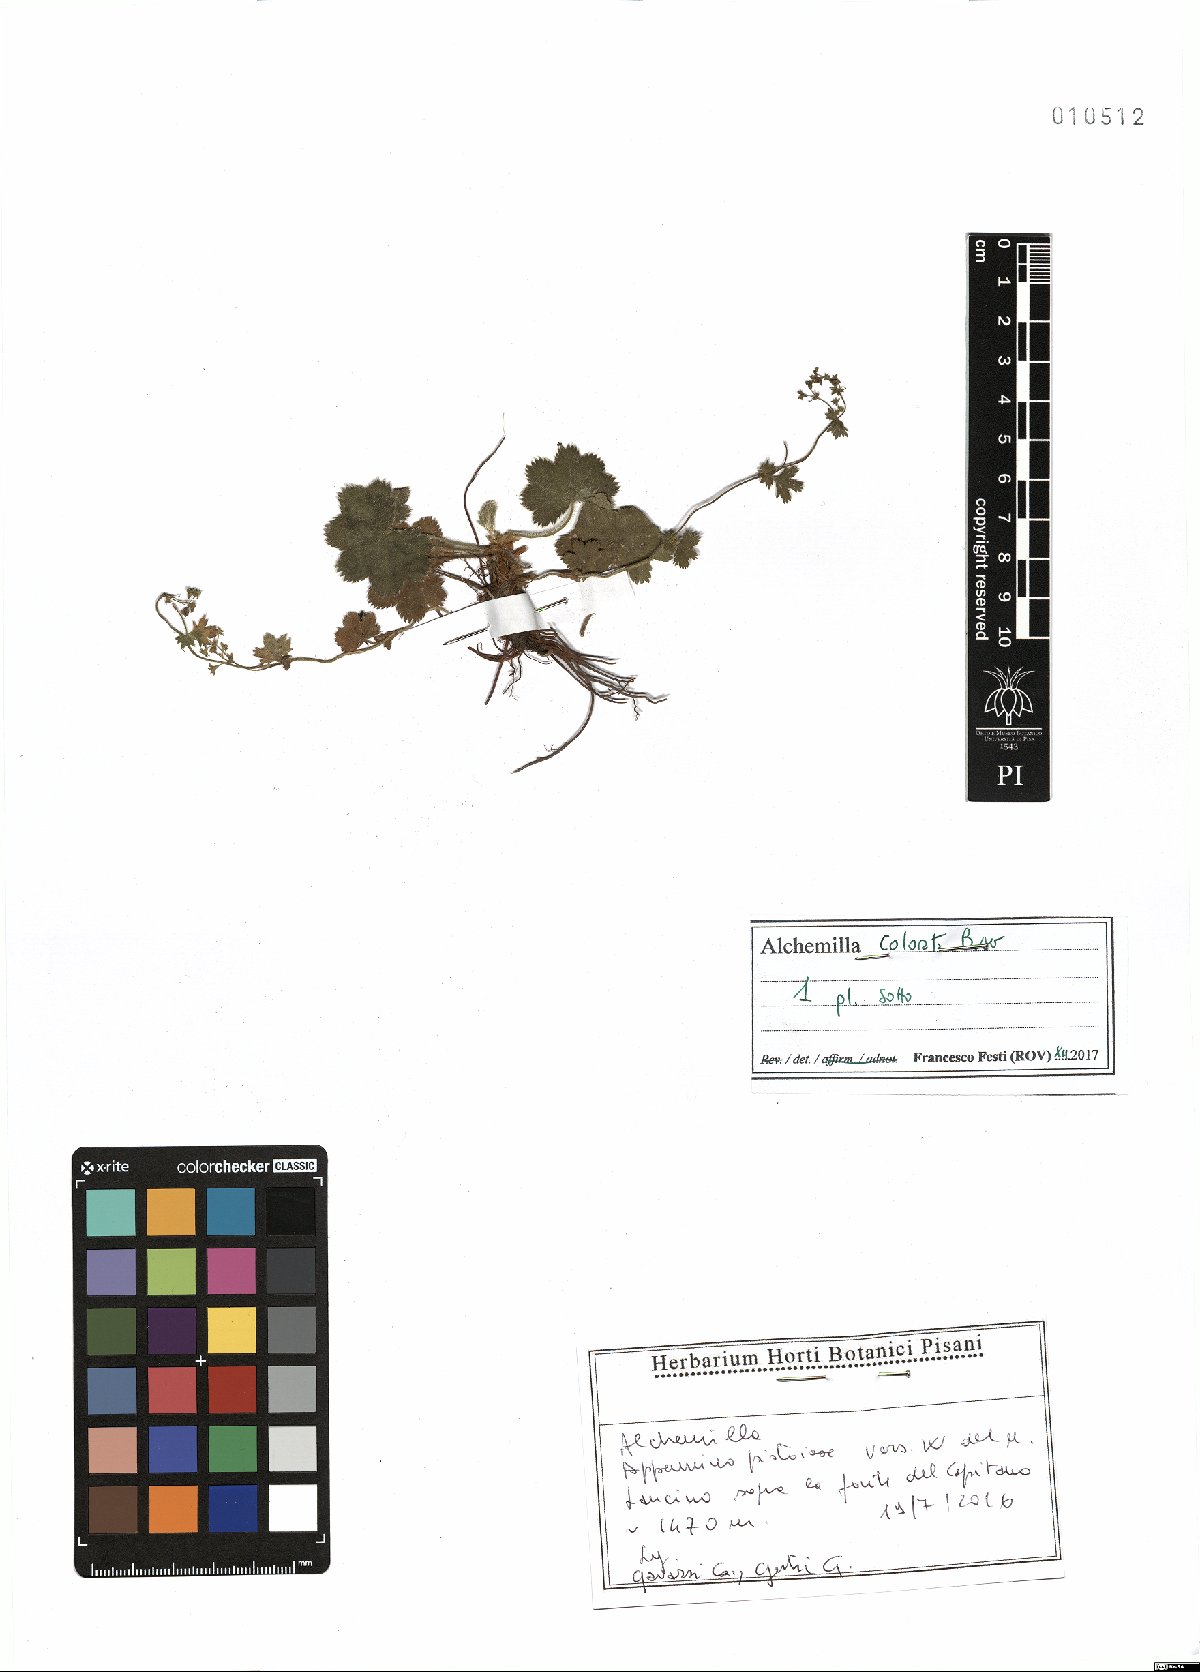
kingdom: Plantae
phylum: Tracheophyta
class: Magnoliopsida
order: Rosales
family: Rosaceae
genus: Alchemilla
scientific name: Alchemilla colorata
